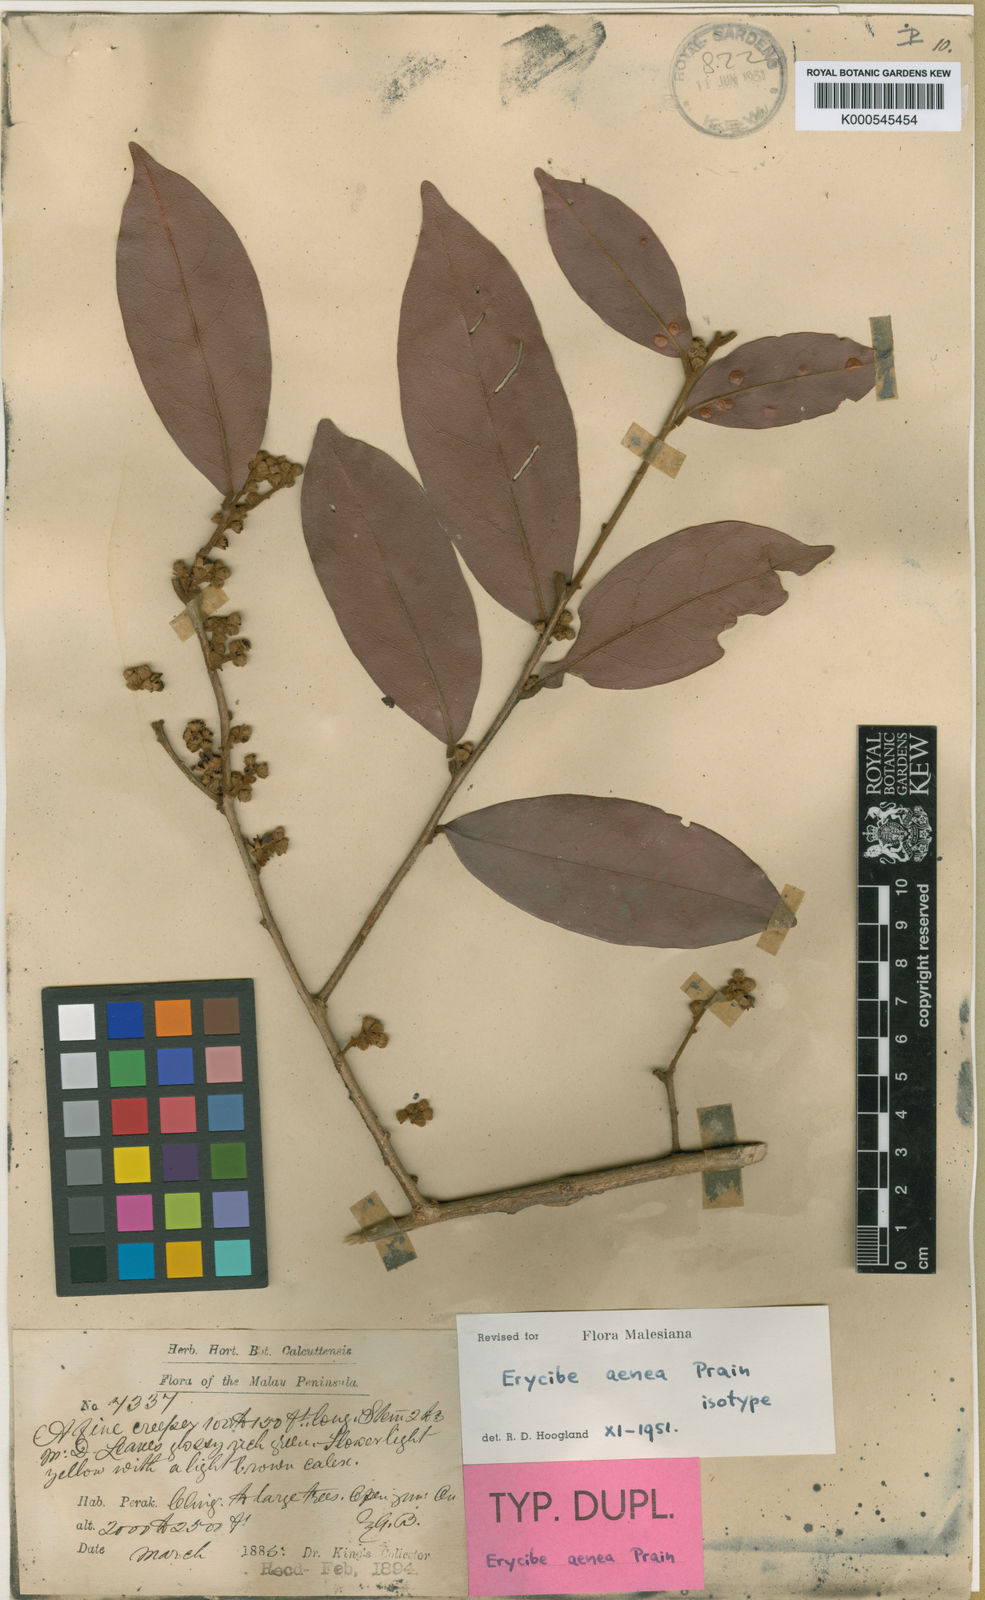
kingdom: Plantae
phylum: Tracheophyta
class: Magnoliopsida
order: Solanales
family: Convolvulaceae
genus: Erycibe
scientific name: Erycibe aenea
